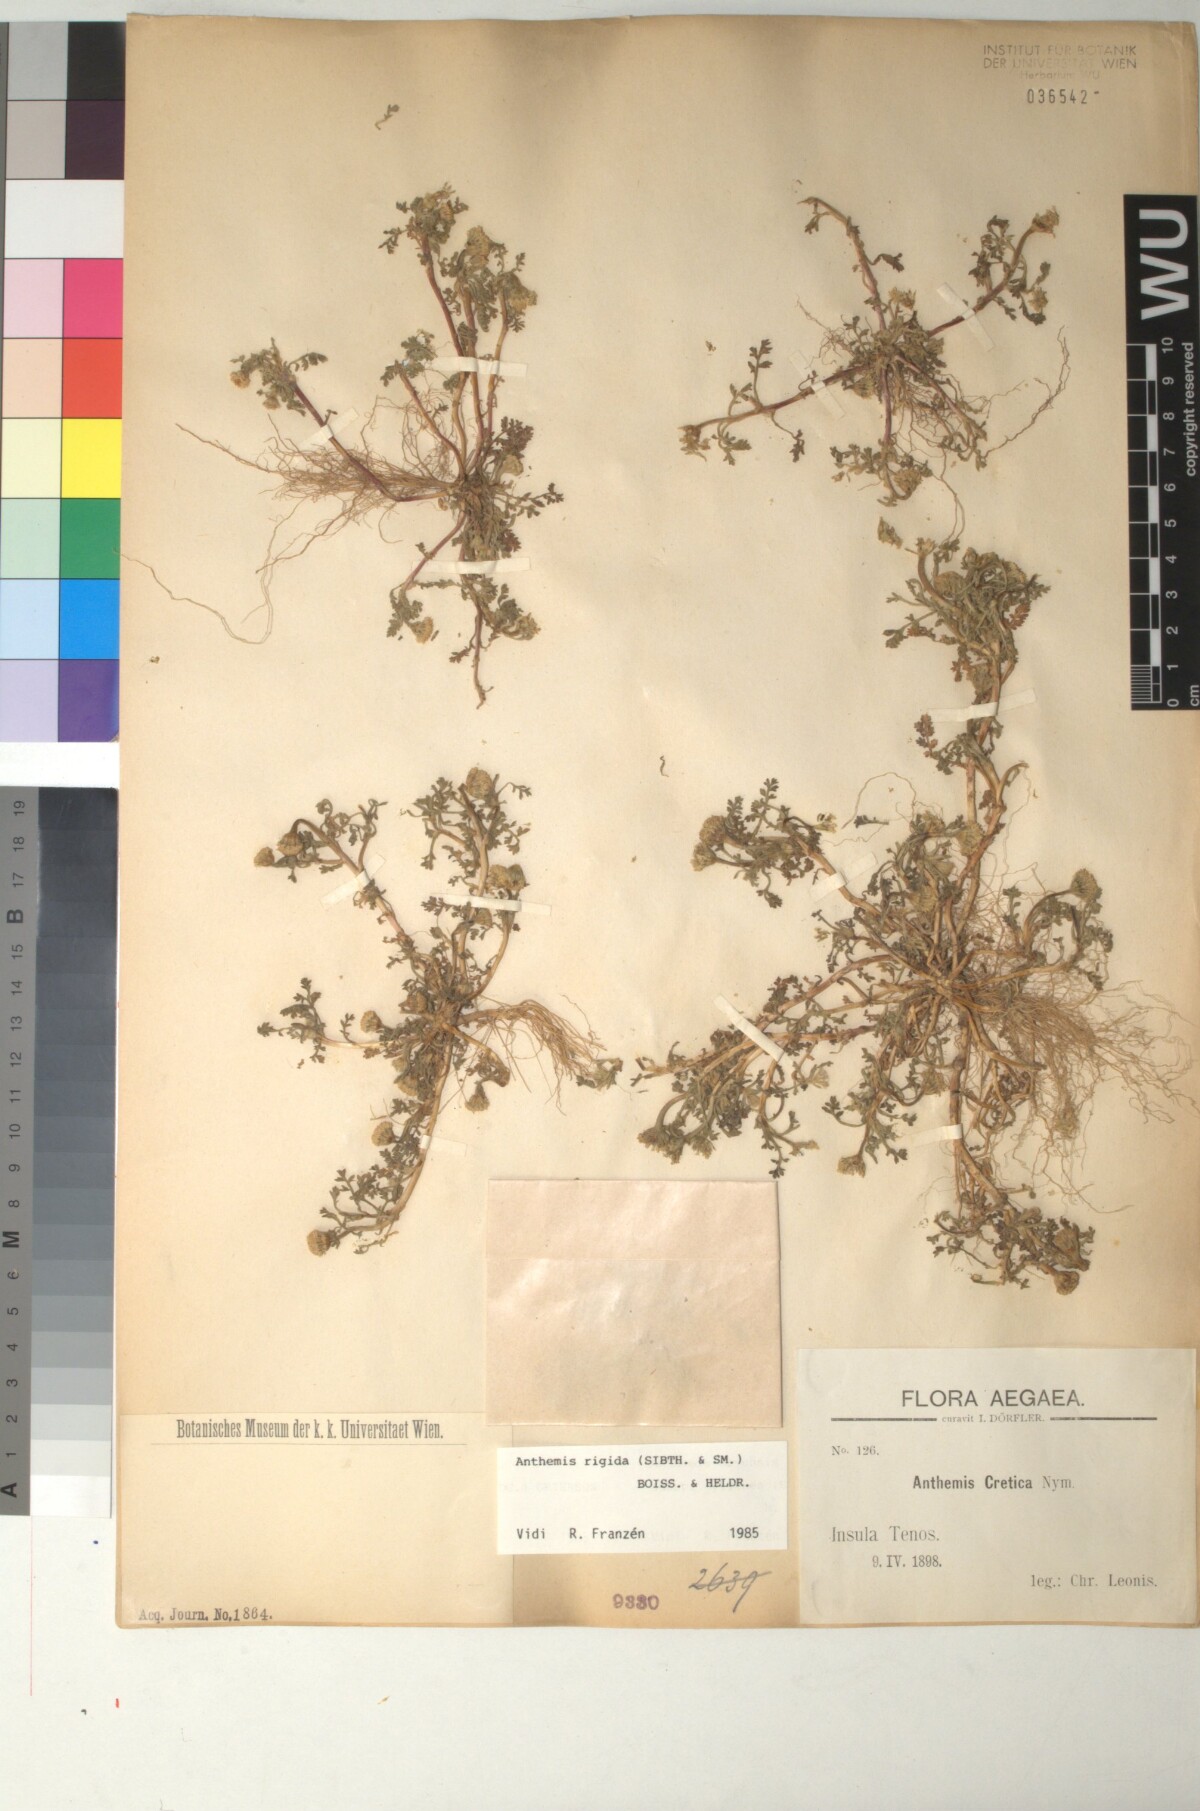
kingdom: Plantae
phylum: Tracheophyta
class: Magnoliopsida
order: Asterales
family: Asteraceae
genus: Anthemis
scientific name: Anthemis rigida
